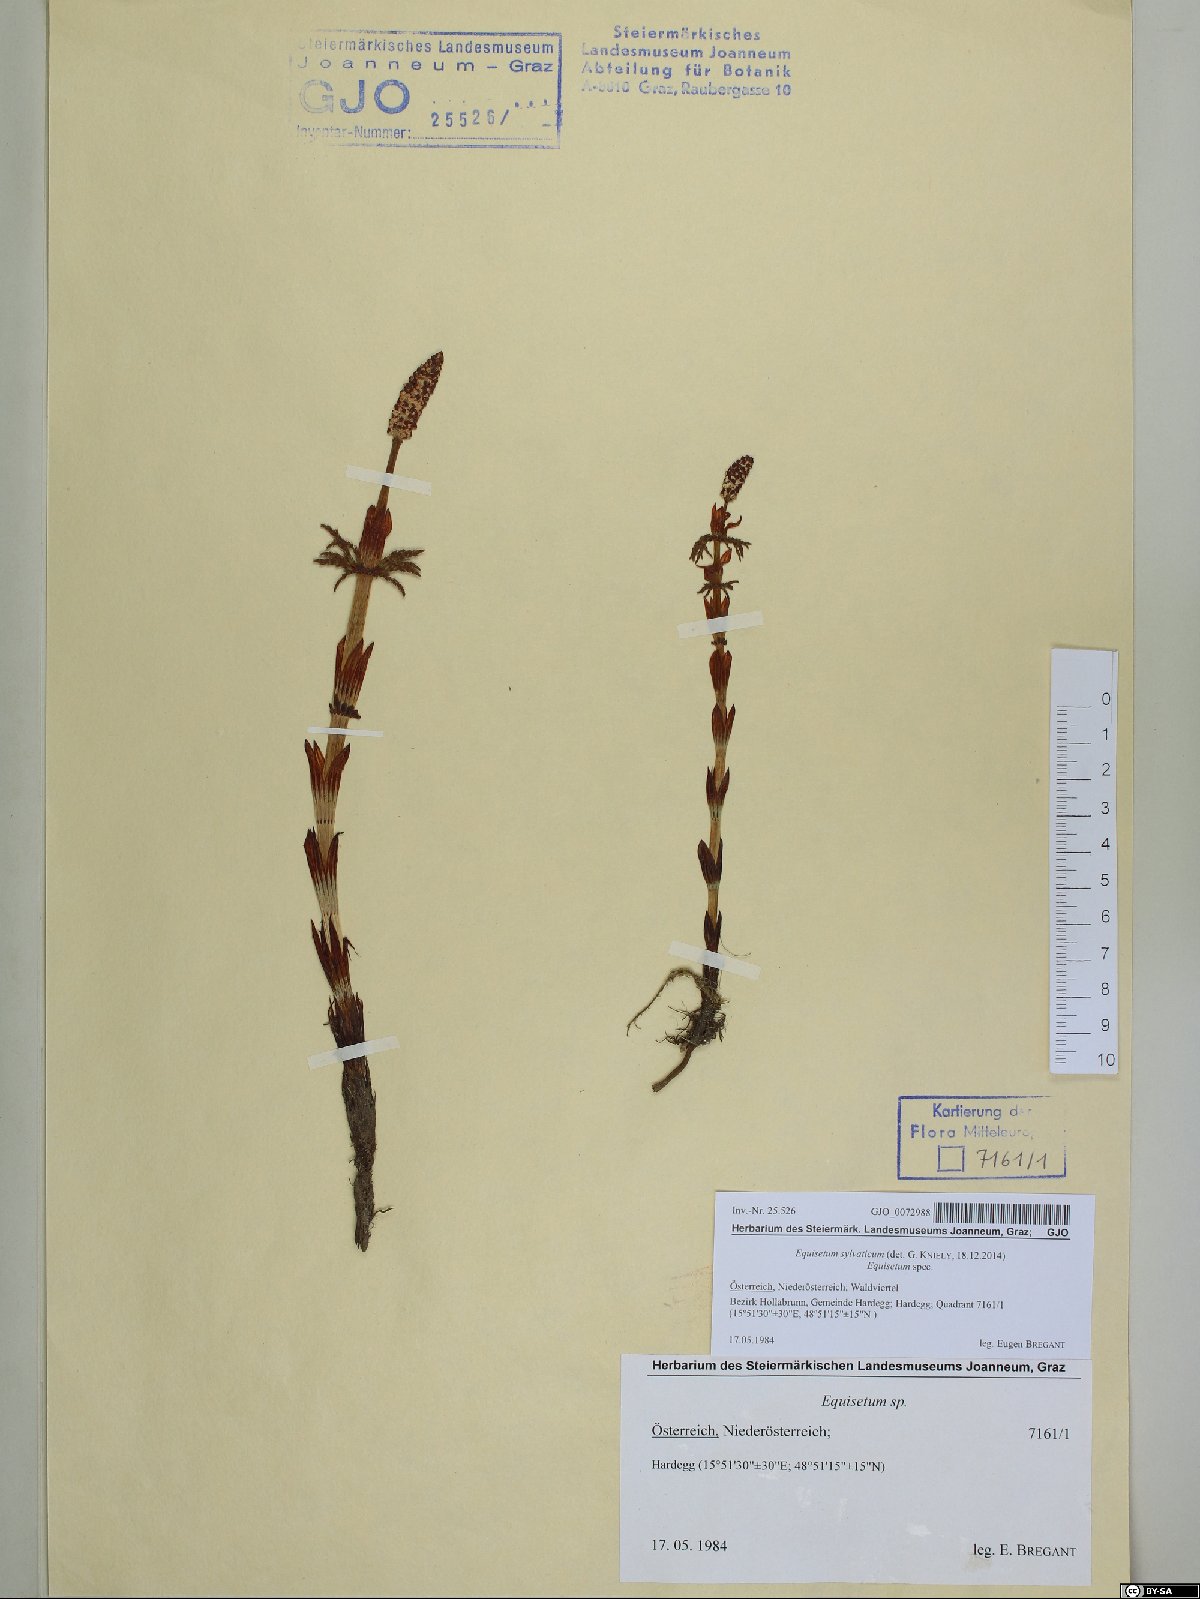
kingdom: Plantae
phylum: Tracheophyta
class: Polypodiopsida
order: Equisetales
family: Equisetaceae
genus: Equisetum
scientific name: Equisetum sylvaticum
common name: Wood horsetail
